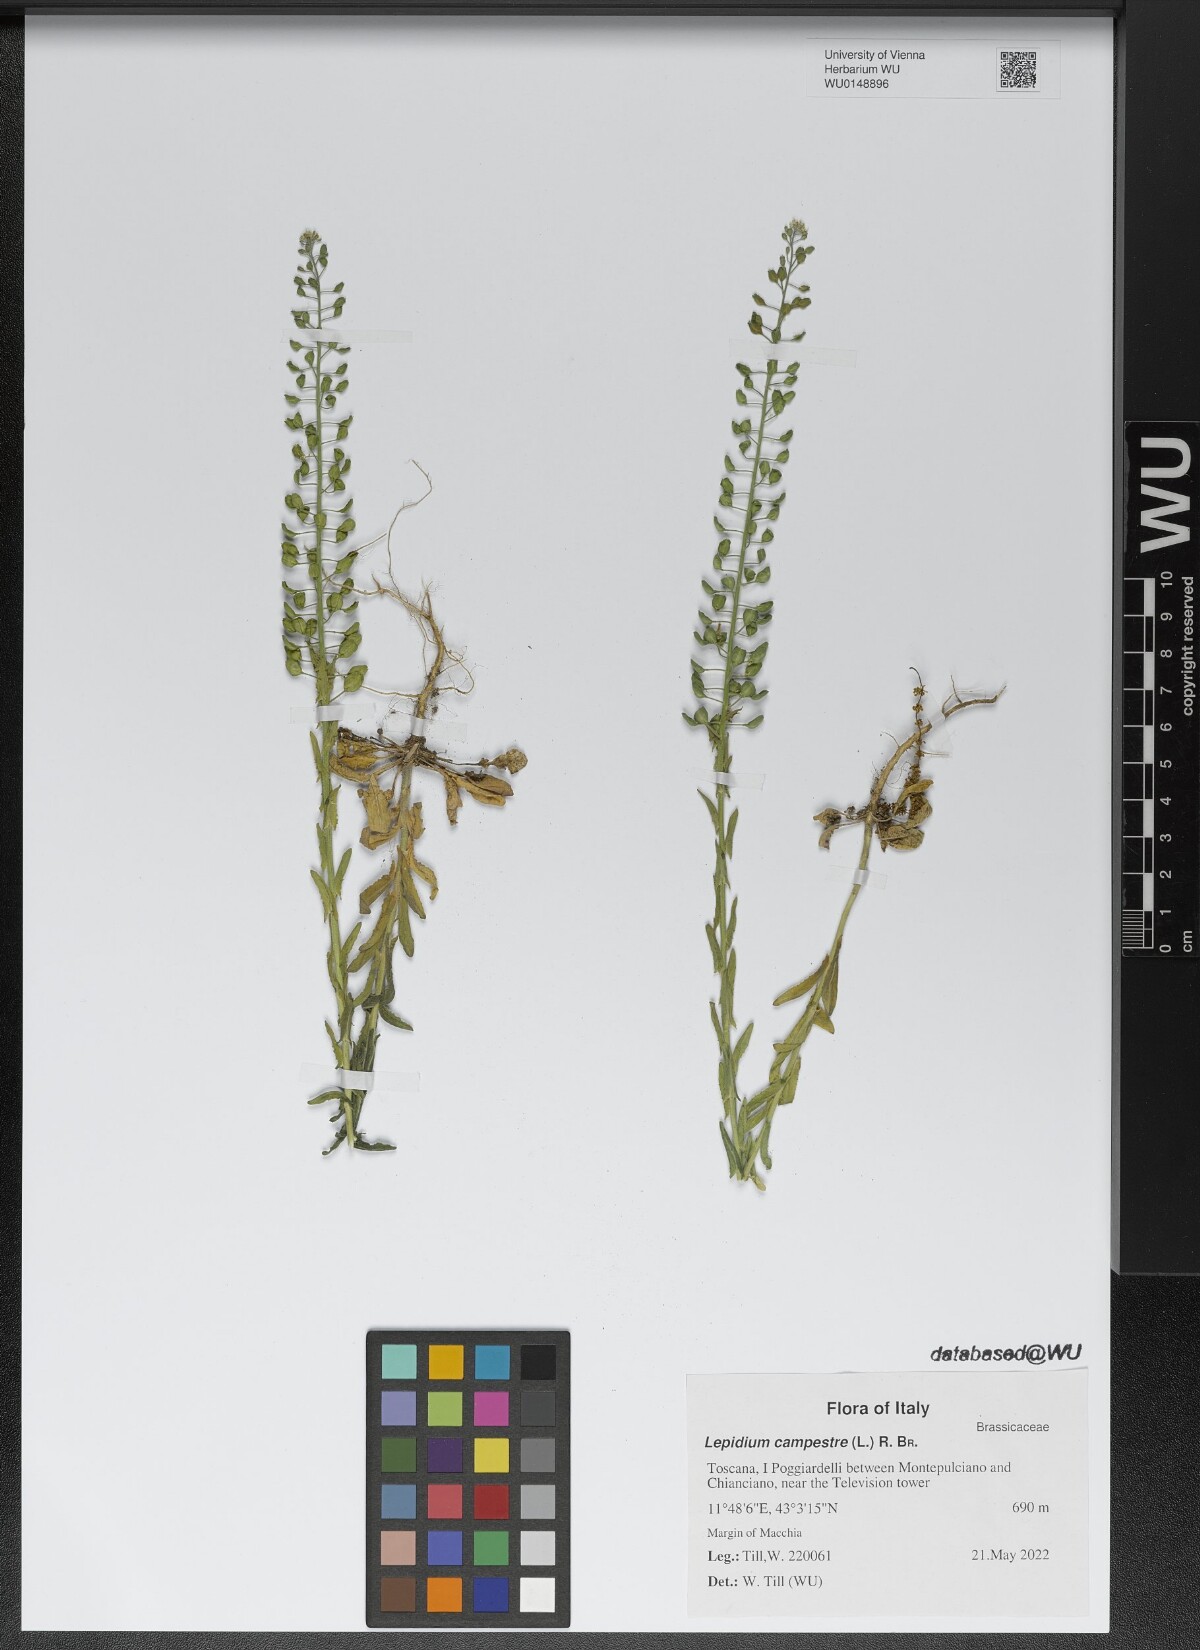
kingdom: Plantae
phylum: Tracheophyta
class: Magnoliopsida
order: Brassicales
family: Brassicaceae
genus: Lepidium
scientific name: Lepidium campestre
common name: Field pepperwort
